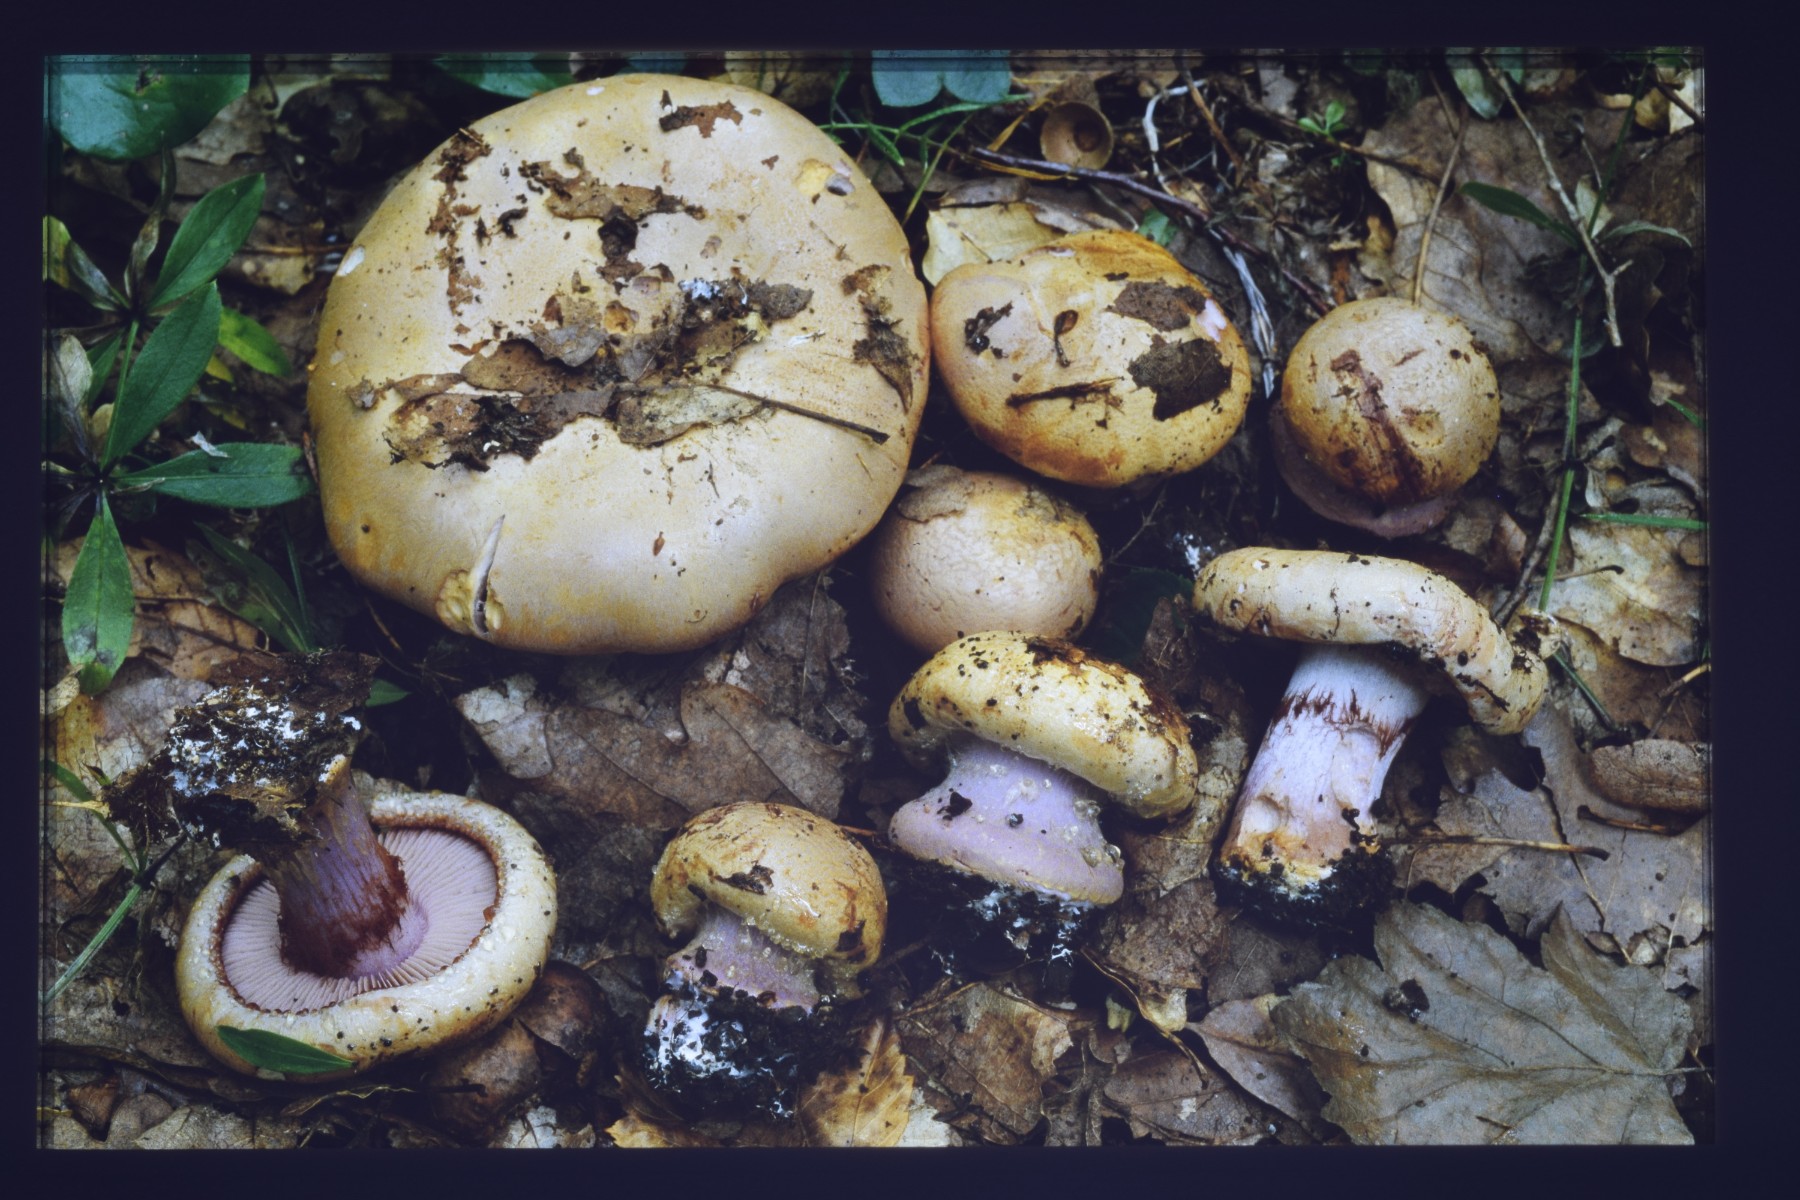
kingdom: Fungi
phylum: Basidiomycota
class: Agaricomycetes
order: Agaricales
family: Cortinariaceae
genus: Calonarius
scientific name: Calonarius violaceipes
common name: stedmoder-slørhat
